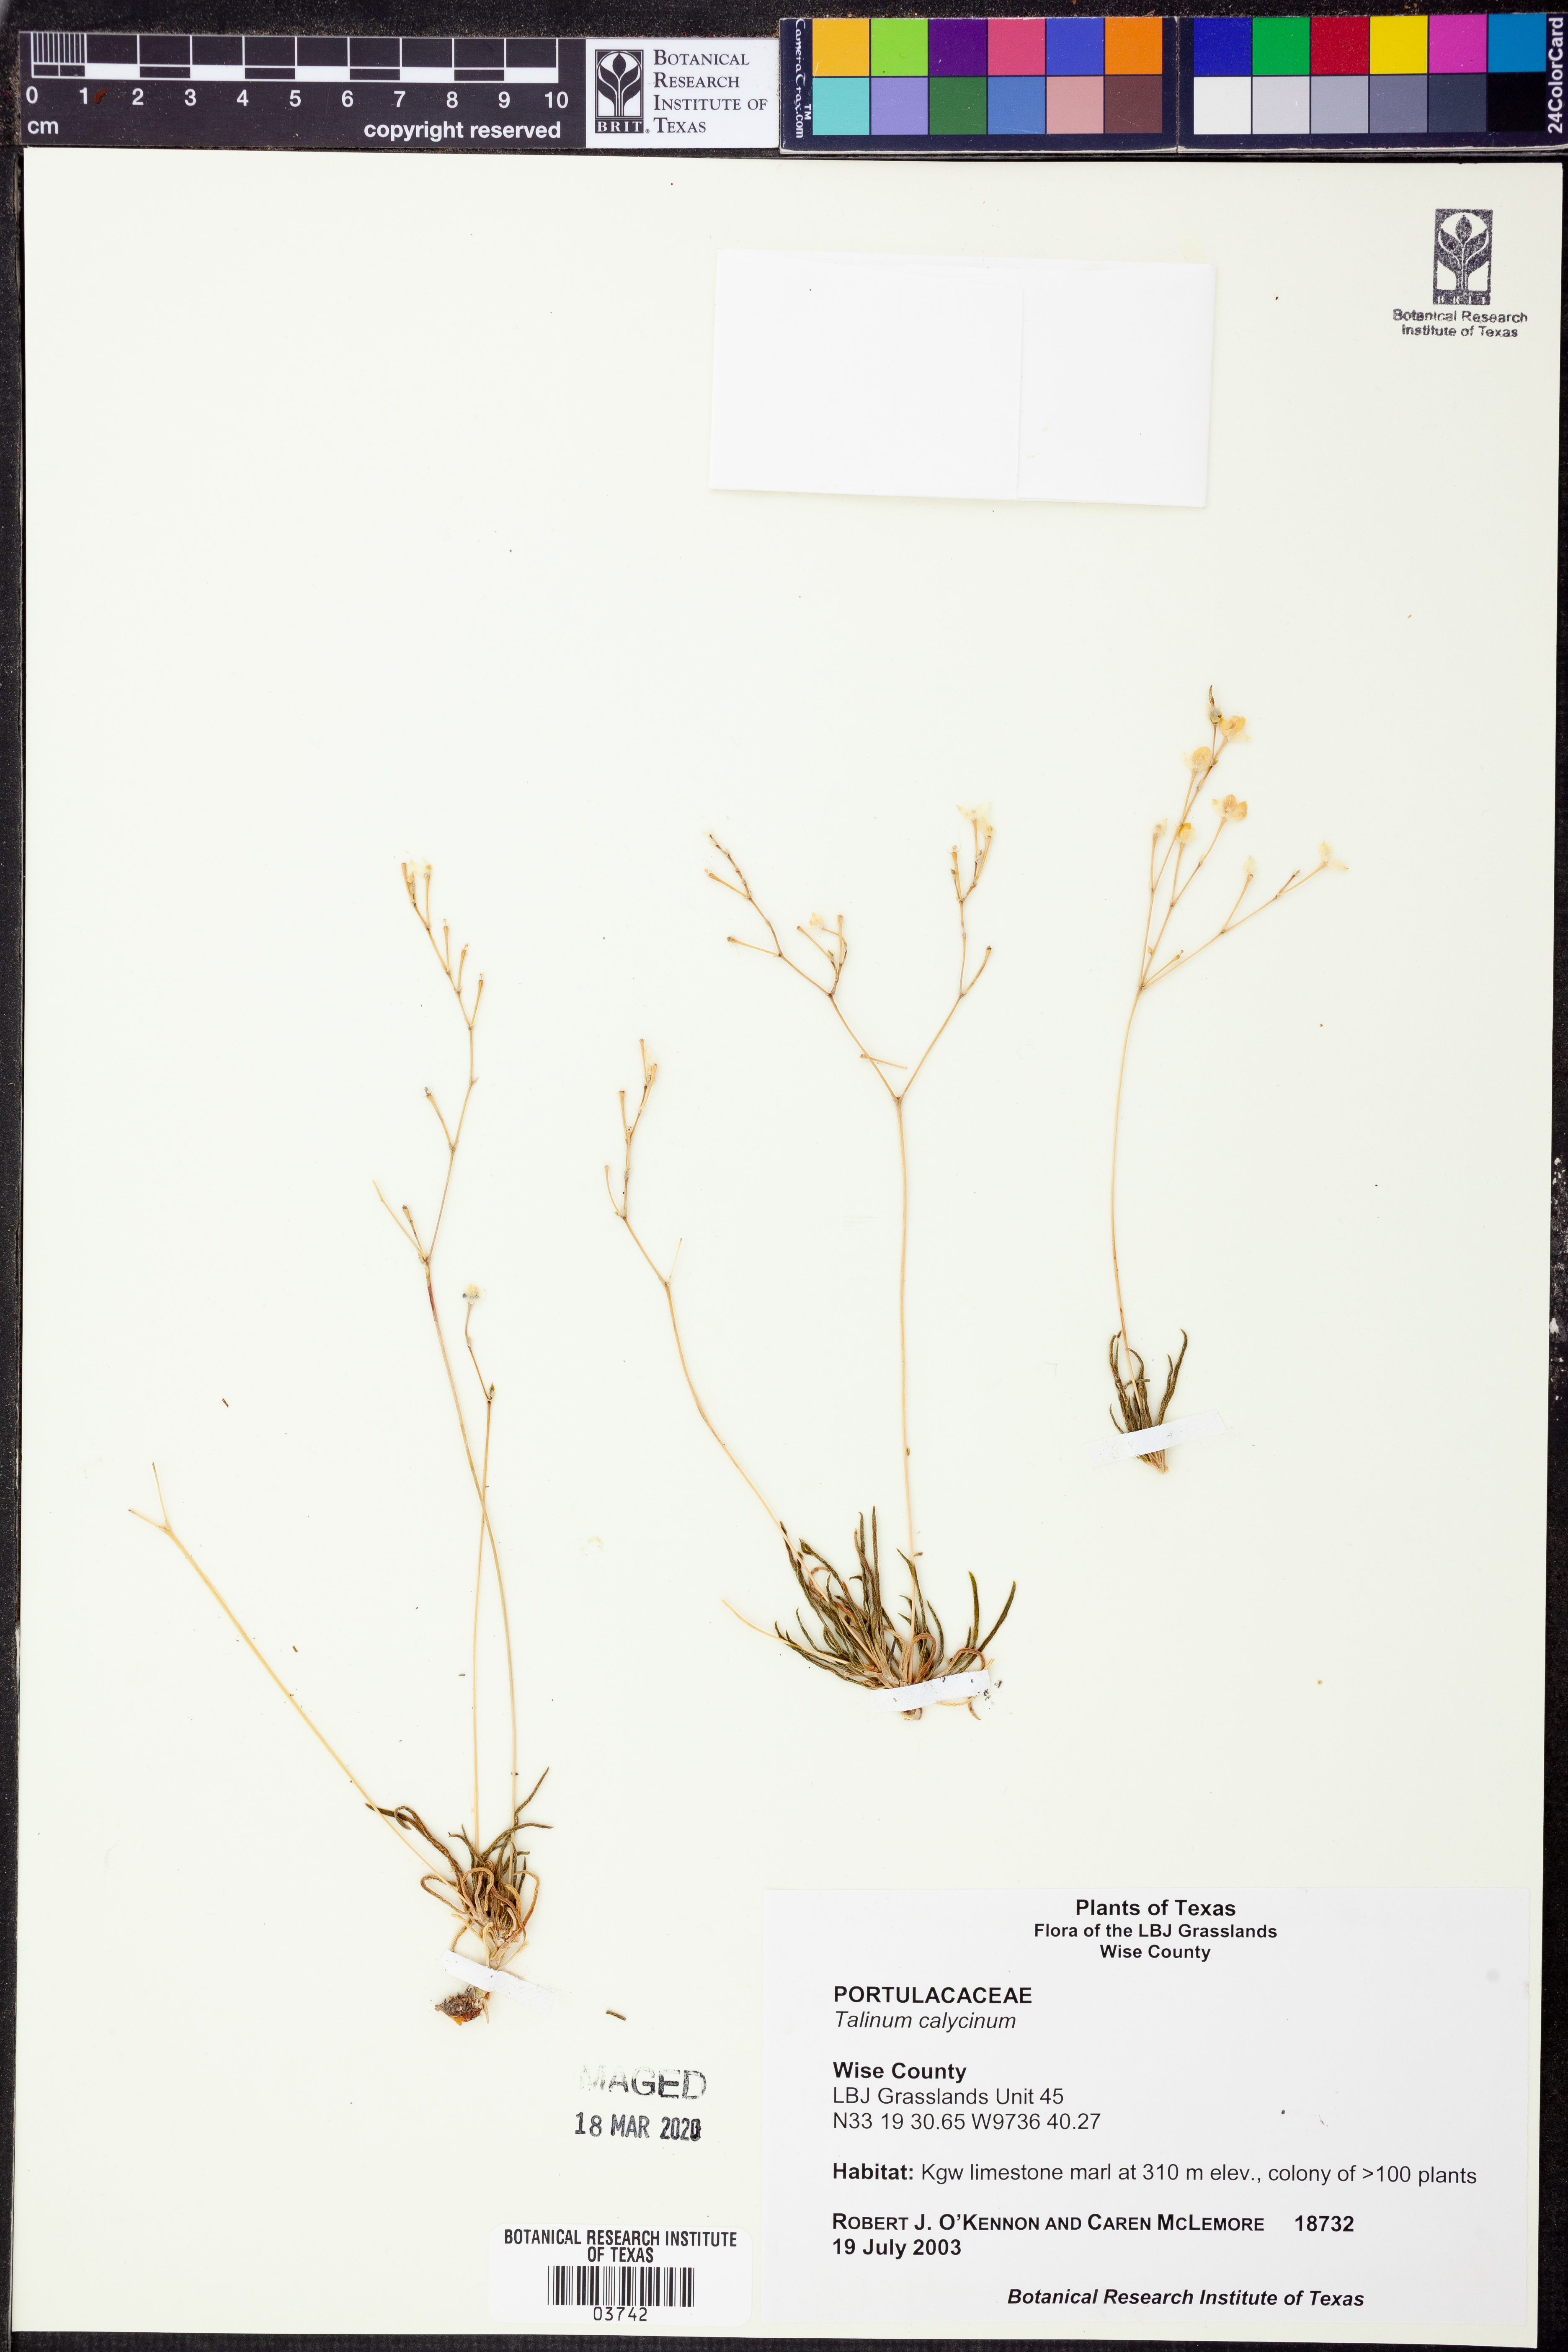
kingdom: Plantae
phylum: Tracheophyta
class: Magnoliopsida
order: Caryophyllales
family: Montiaceae
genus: Phemeranthus
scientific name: Phemeranthus calycinus
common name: Largeflower fameflower
